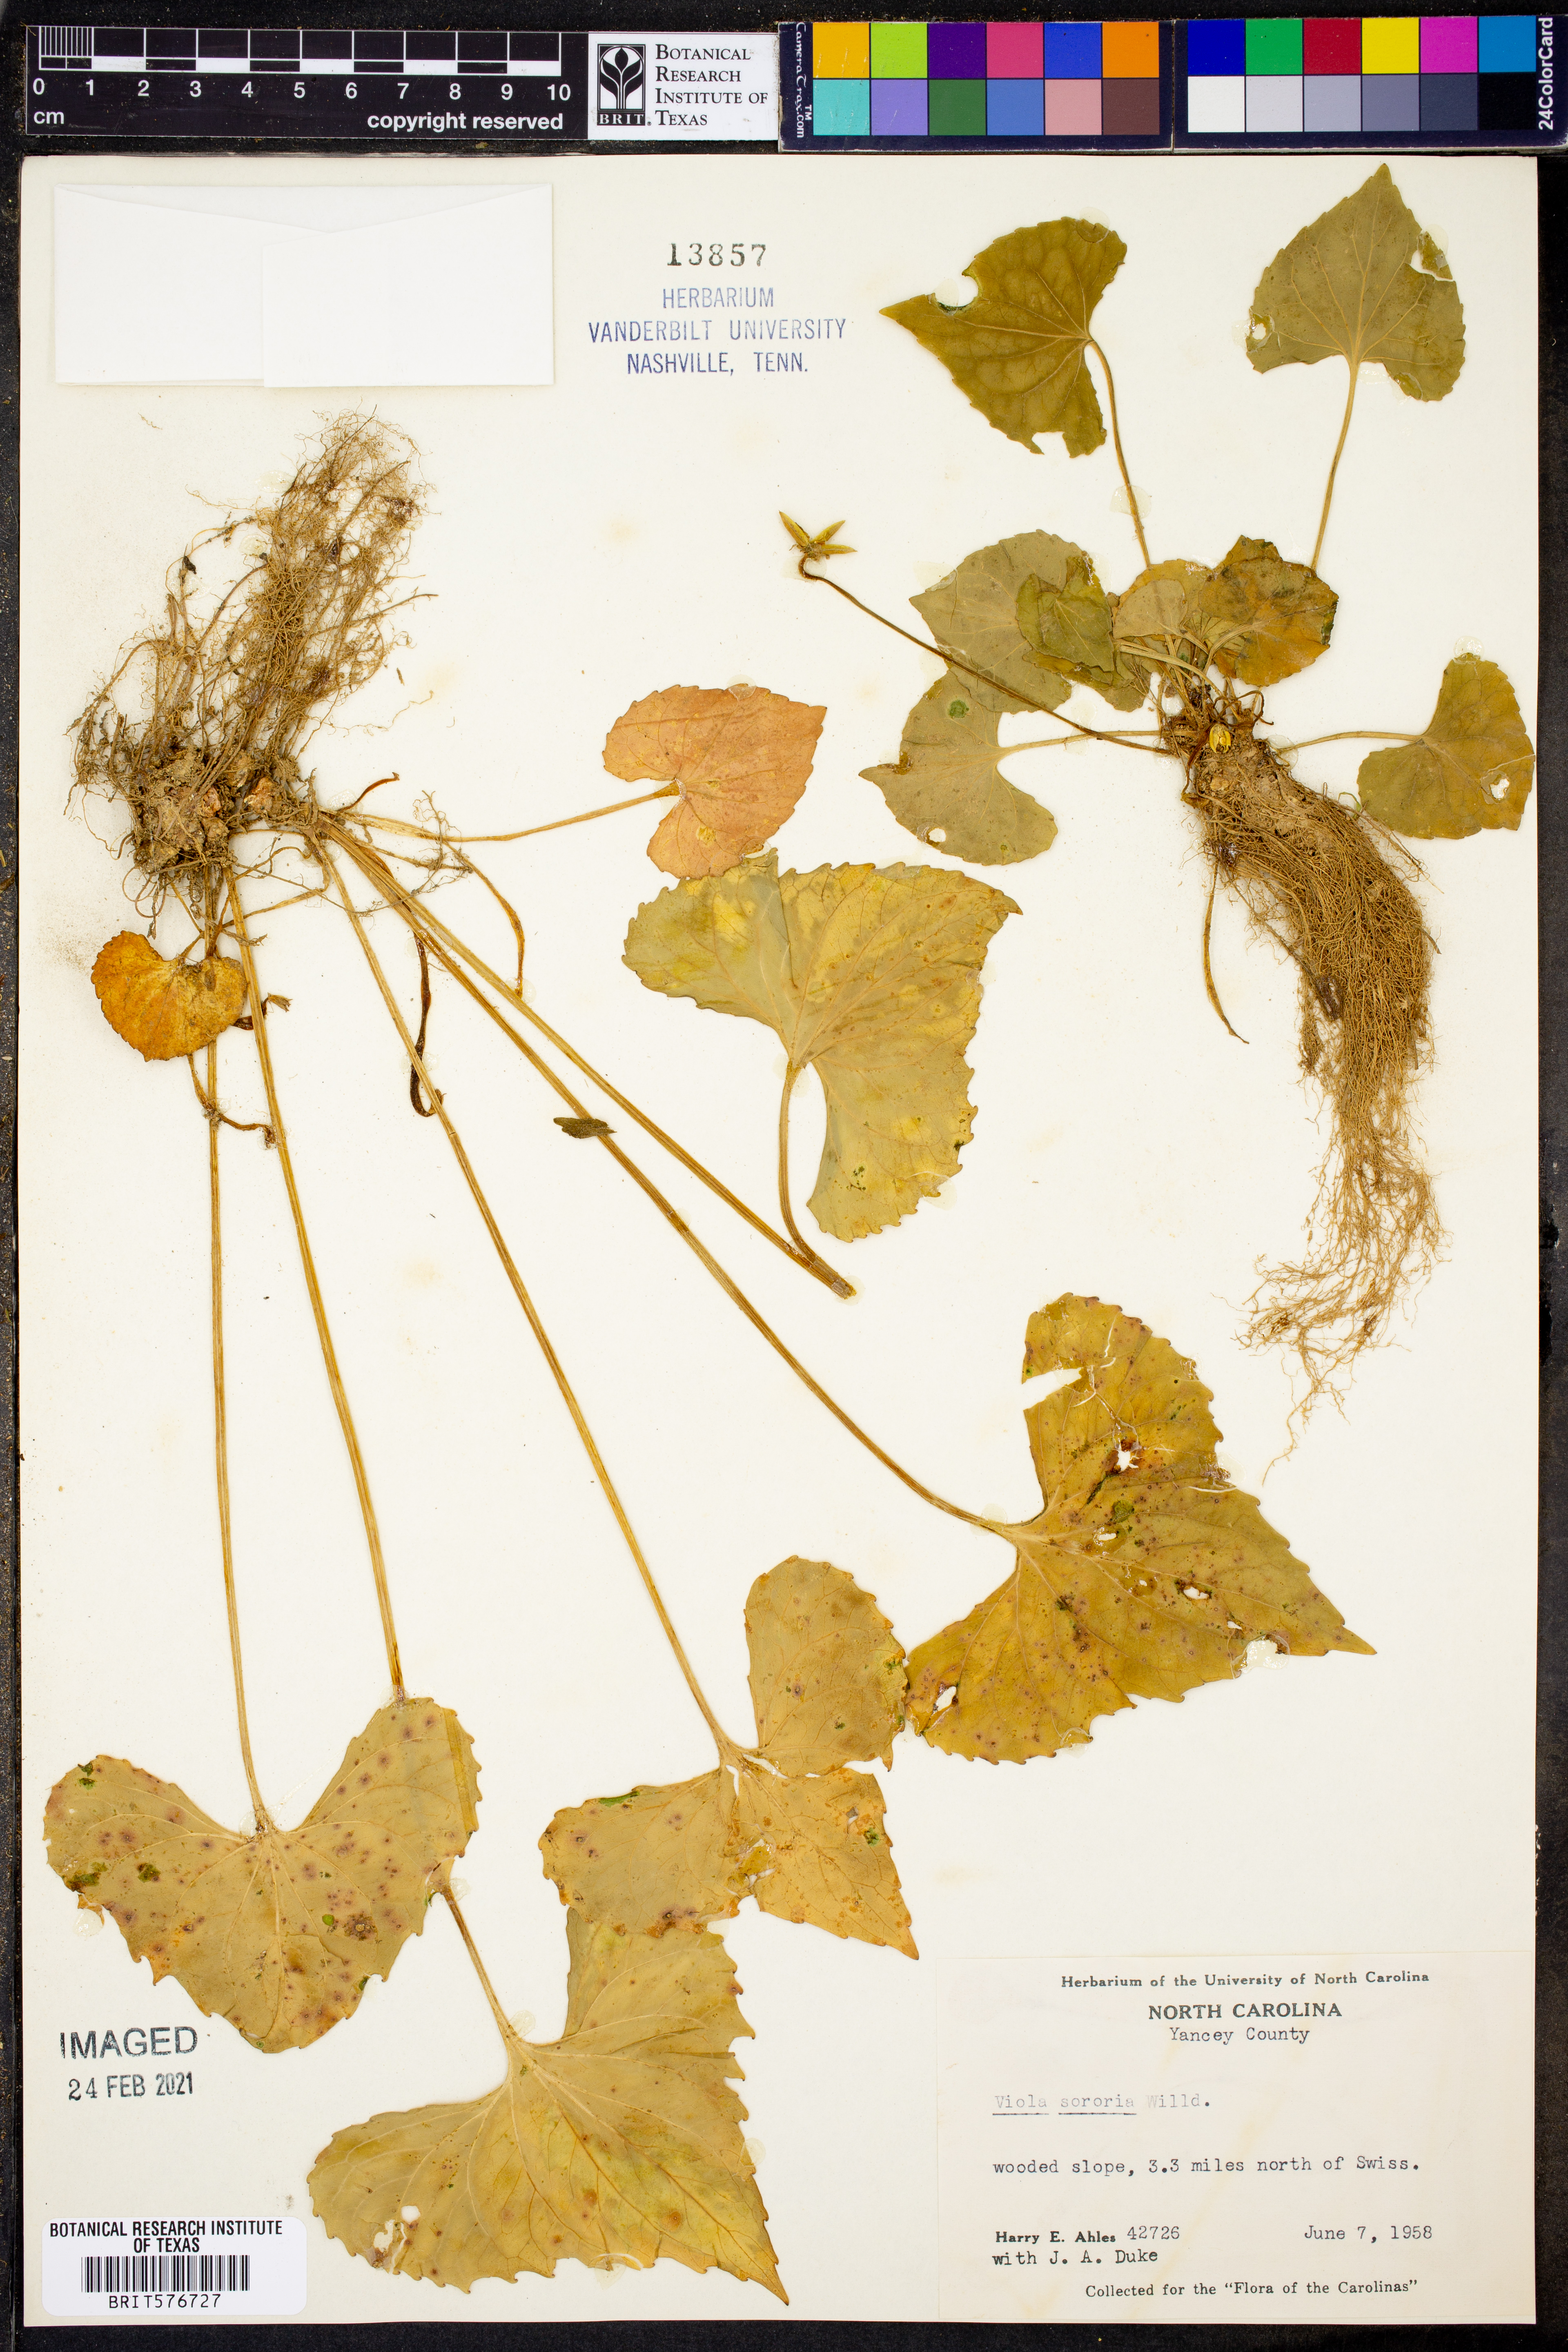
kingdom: Plantae
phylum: Tracheophyta
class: Magnoliopsida
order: Malpighiales
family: Violaceae
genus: Viola
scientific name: Viola sororia
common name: Dooryard violet
